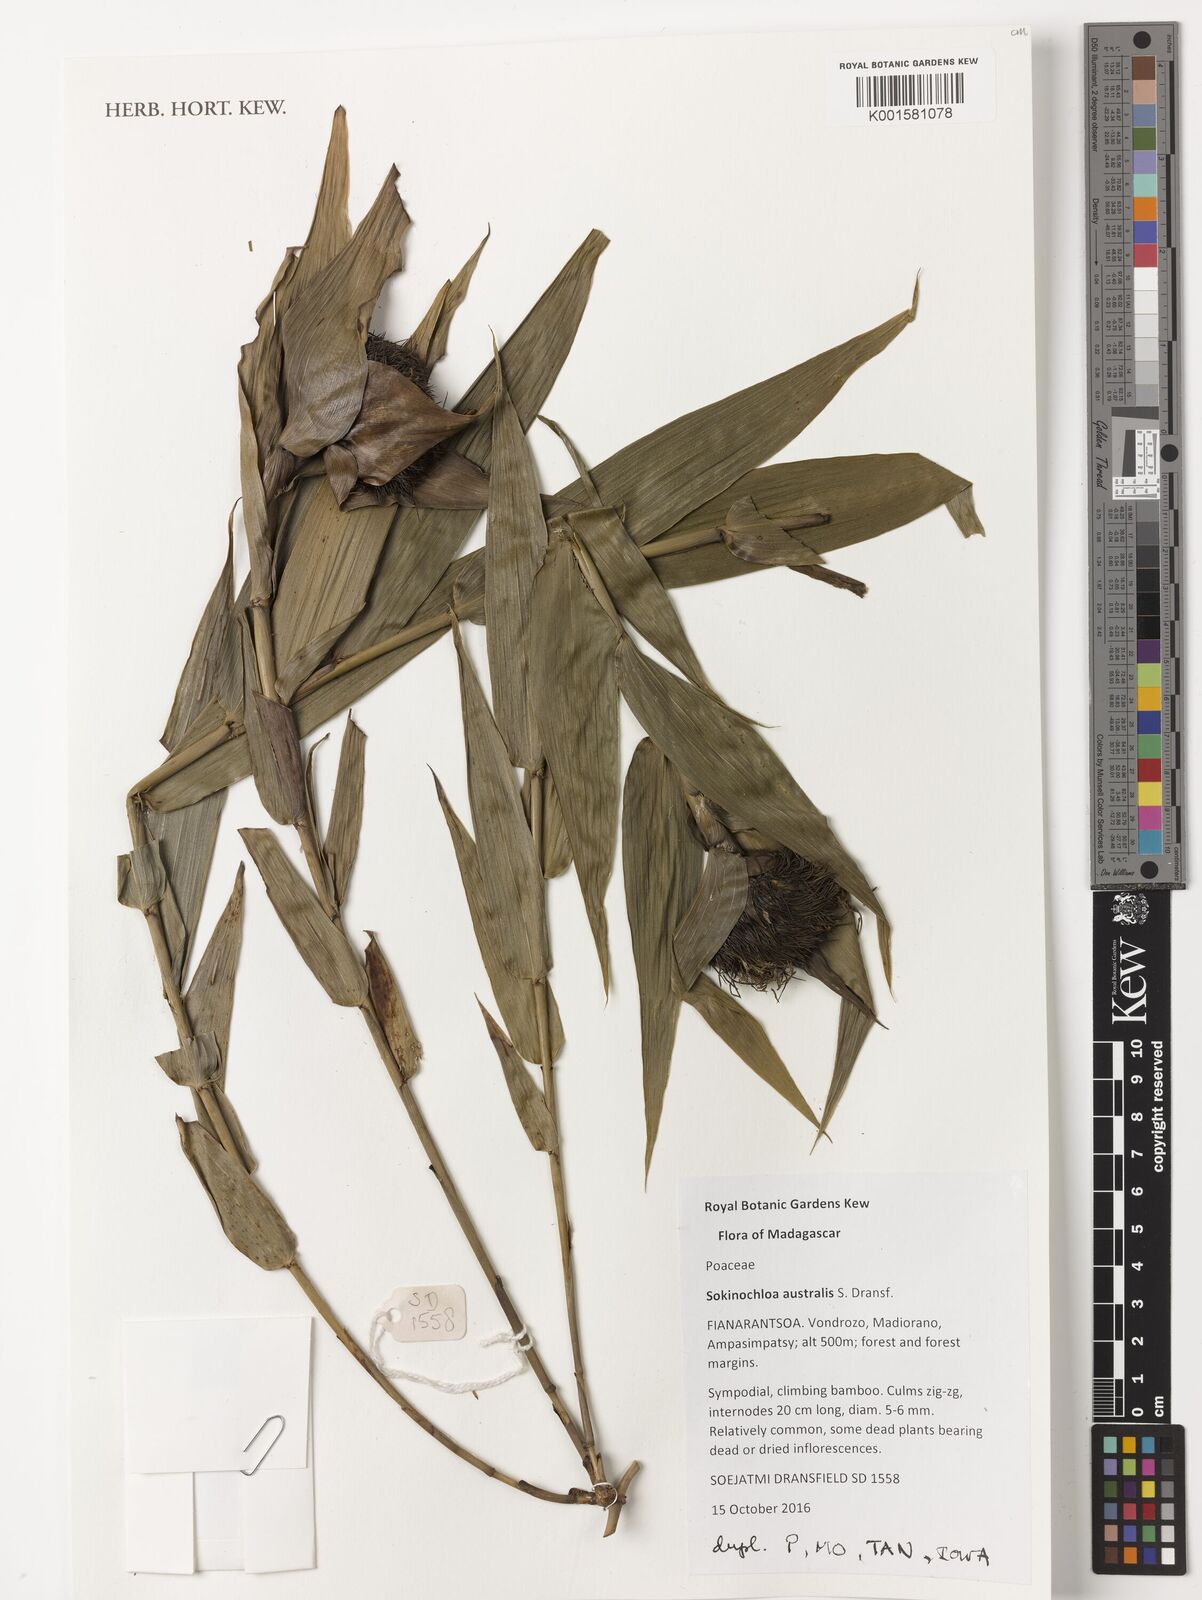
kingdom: Plantae
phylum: Tracheophyta
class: Liliopsida
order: Poales
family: Poaceae
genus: Sokinochloa
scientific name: Sokinochloa australis
